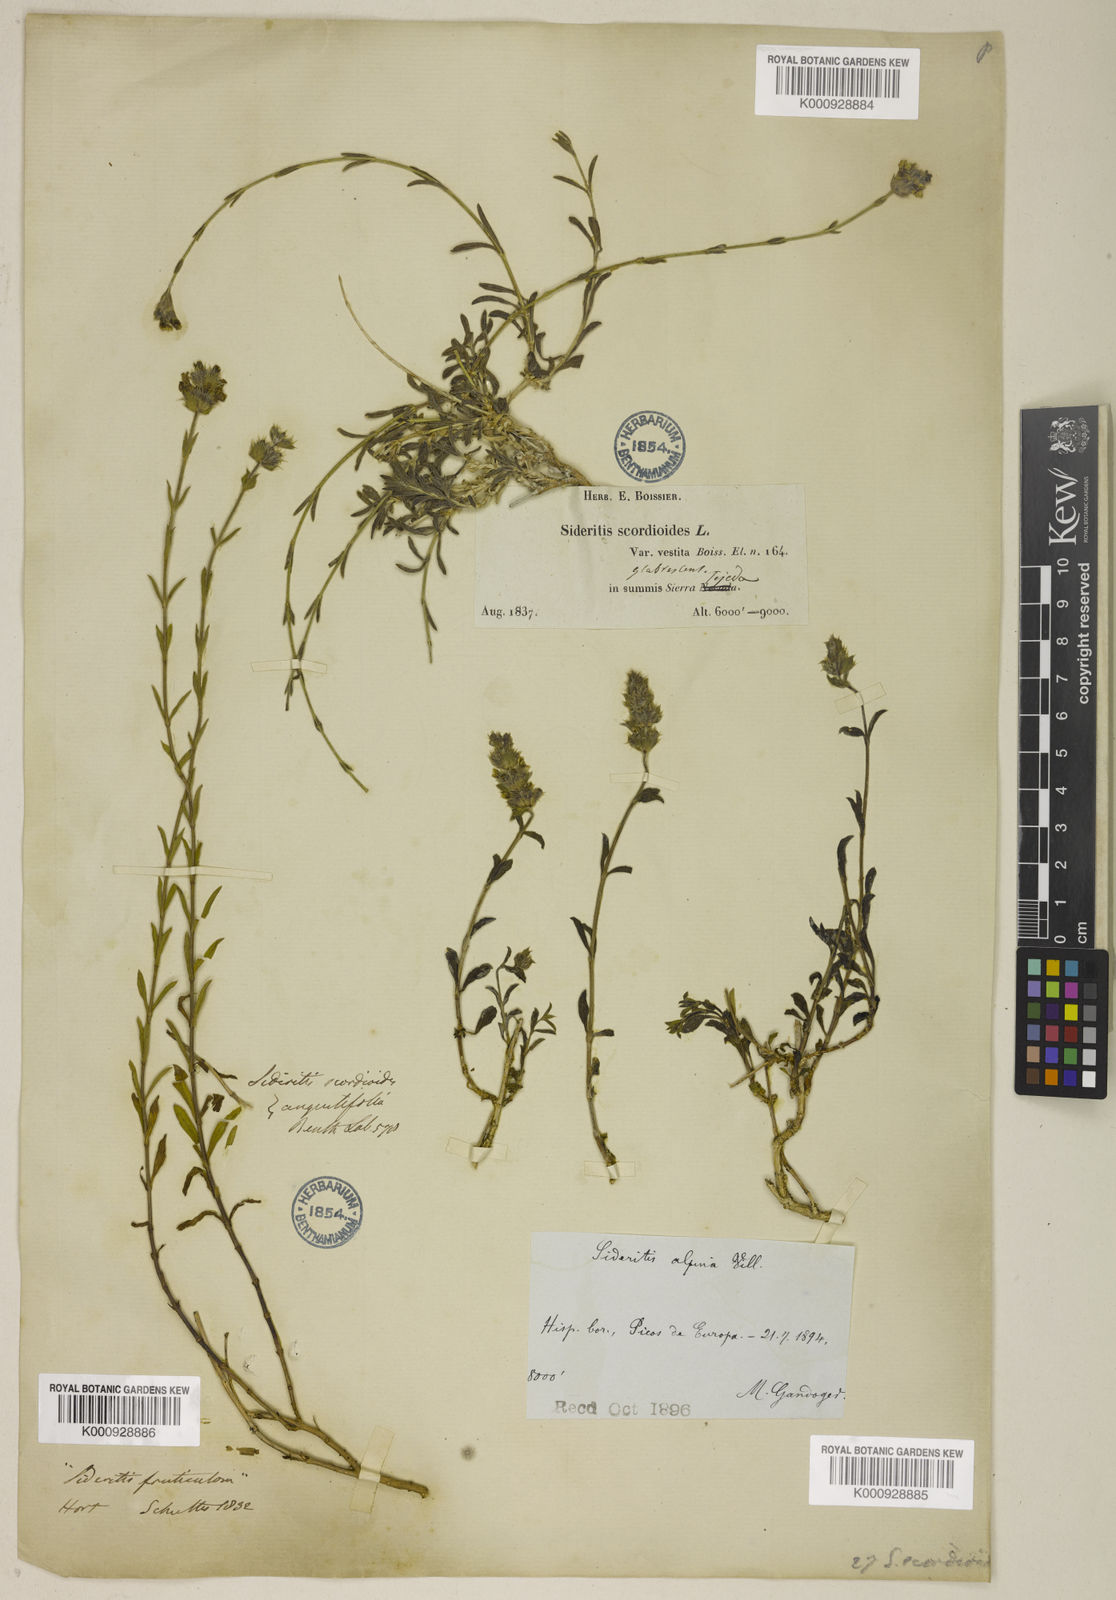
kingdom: Plantae
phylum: Tracheophyta
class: Magnoliopsida
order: Lamiales
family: Lamiaceae
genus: Sideritis
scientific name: Sideritis glacialis
